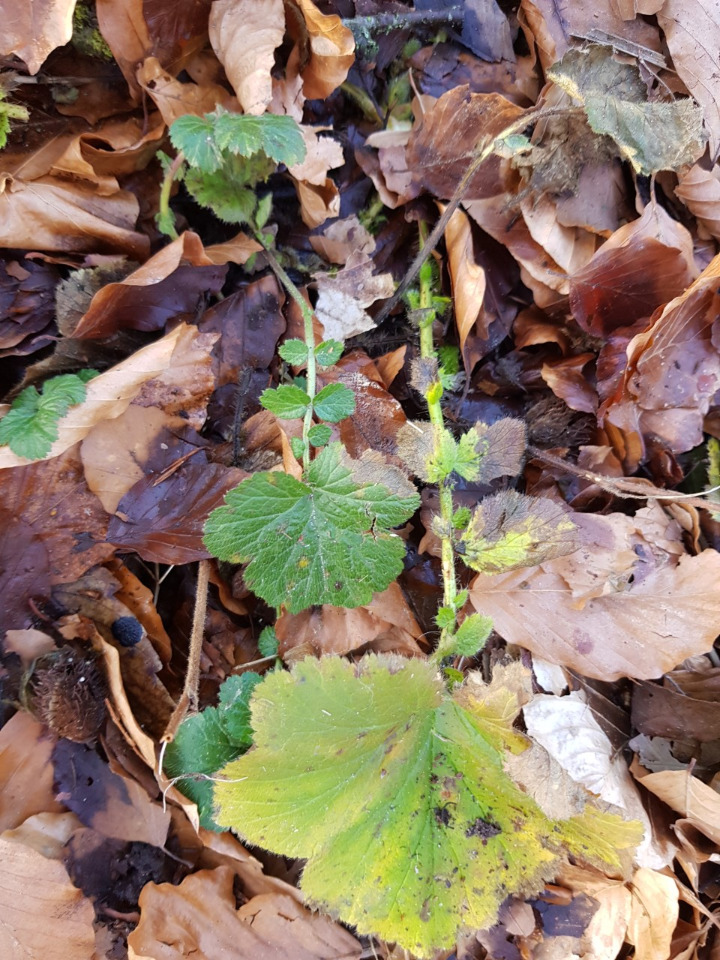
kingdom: Plantae
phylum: Tracheophyta
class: Magnoliopsida
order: Rosales
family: Rosaceae
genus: Geum
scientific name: Geum macrophyllum
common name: Amerikansk nellikerod
